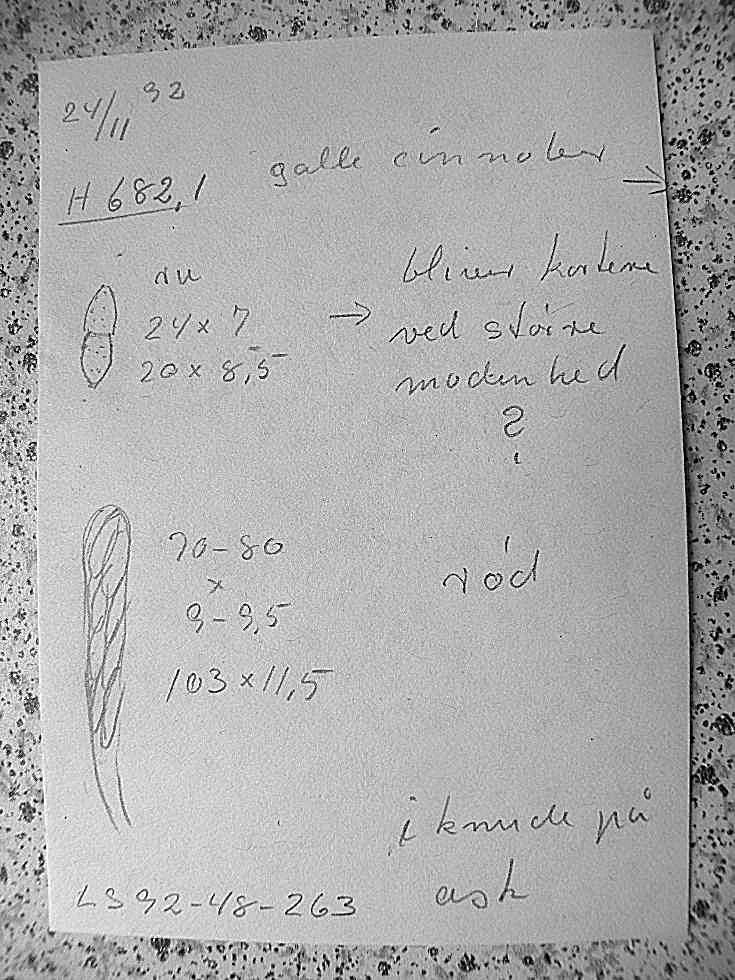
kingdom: Fungi
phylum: Ascomycota
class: Sordariomycetes
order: Hypocreales
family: Nectriaceae
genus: Neonectria
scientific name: Neonectria ditissima
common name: frugttræ-cinnobersvamp
